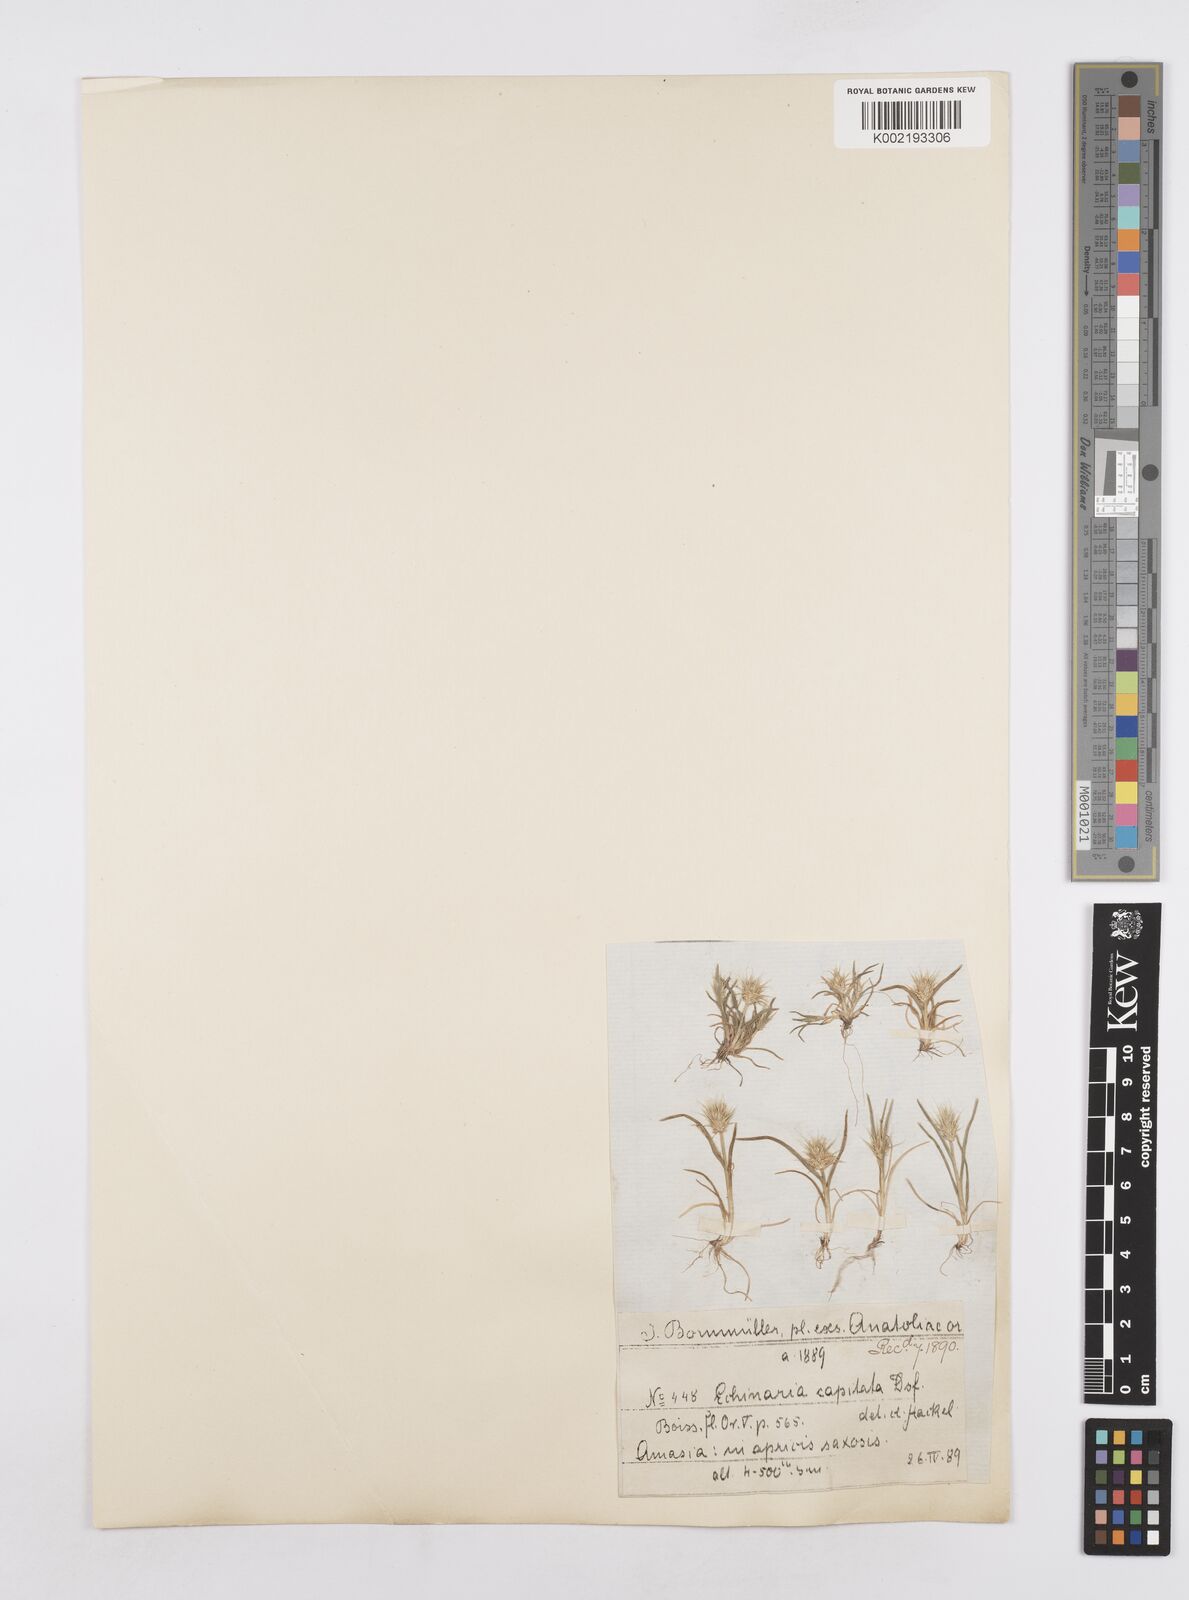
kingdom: Plantae
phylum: Tracheophyta
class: Liliopsida
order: Poales
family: Poaceae
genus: Echinaria
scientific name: Echinaria capitata
